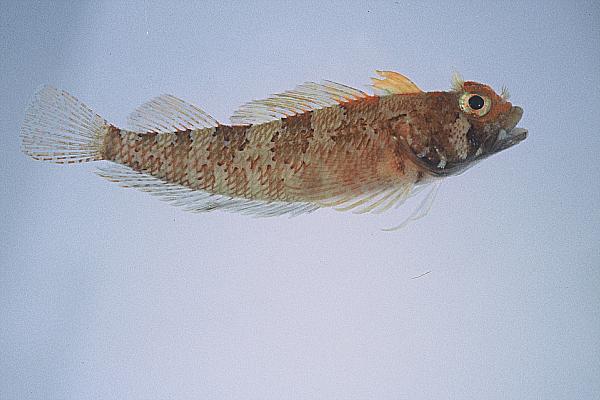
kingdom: Animalia
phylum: Chordata
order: Perciformes
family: Tripterygiidae
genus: Cremnochorites
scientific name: Cremnochorites capensis
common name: Cape triplefin
